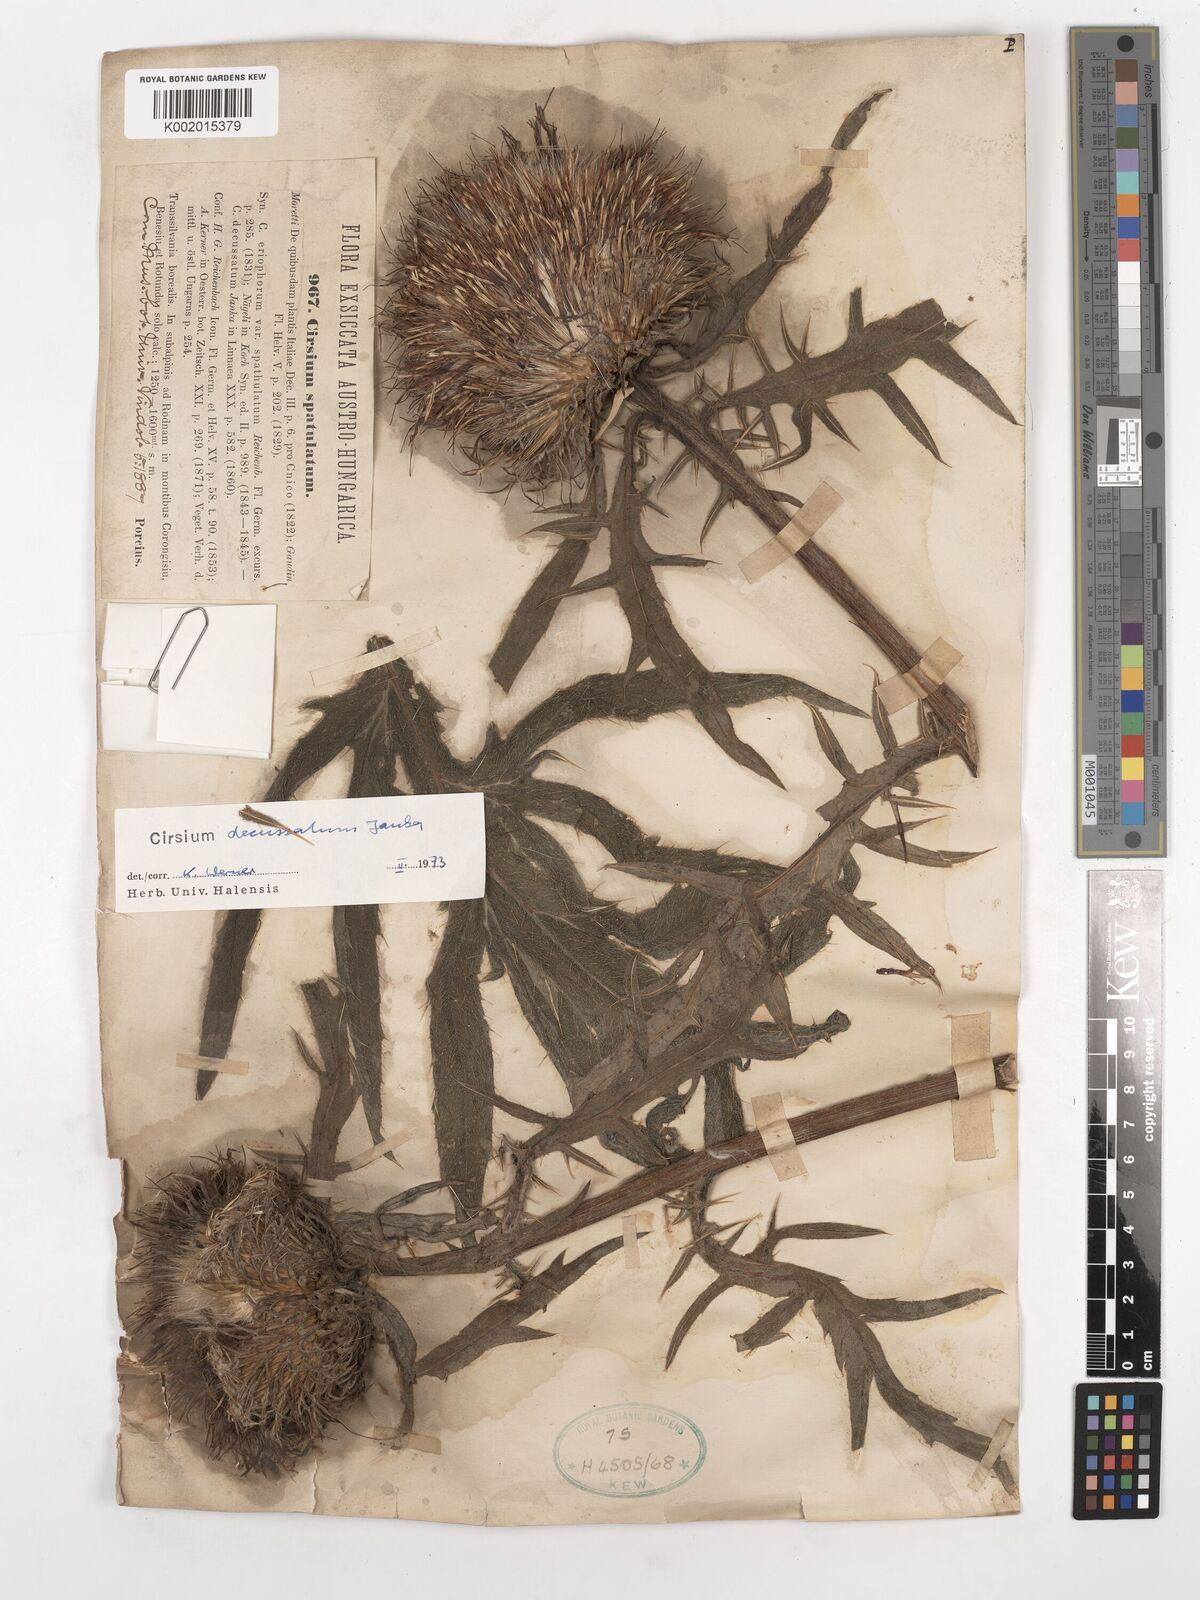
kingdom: Plantae
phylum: Tracheophyta
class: Magnoliopsida
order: Asterales
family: Asteraceae
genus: Lophiolepis
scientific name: Lophiolepis decussata
